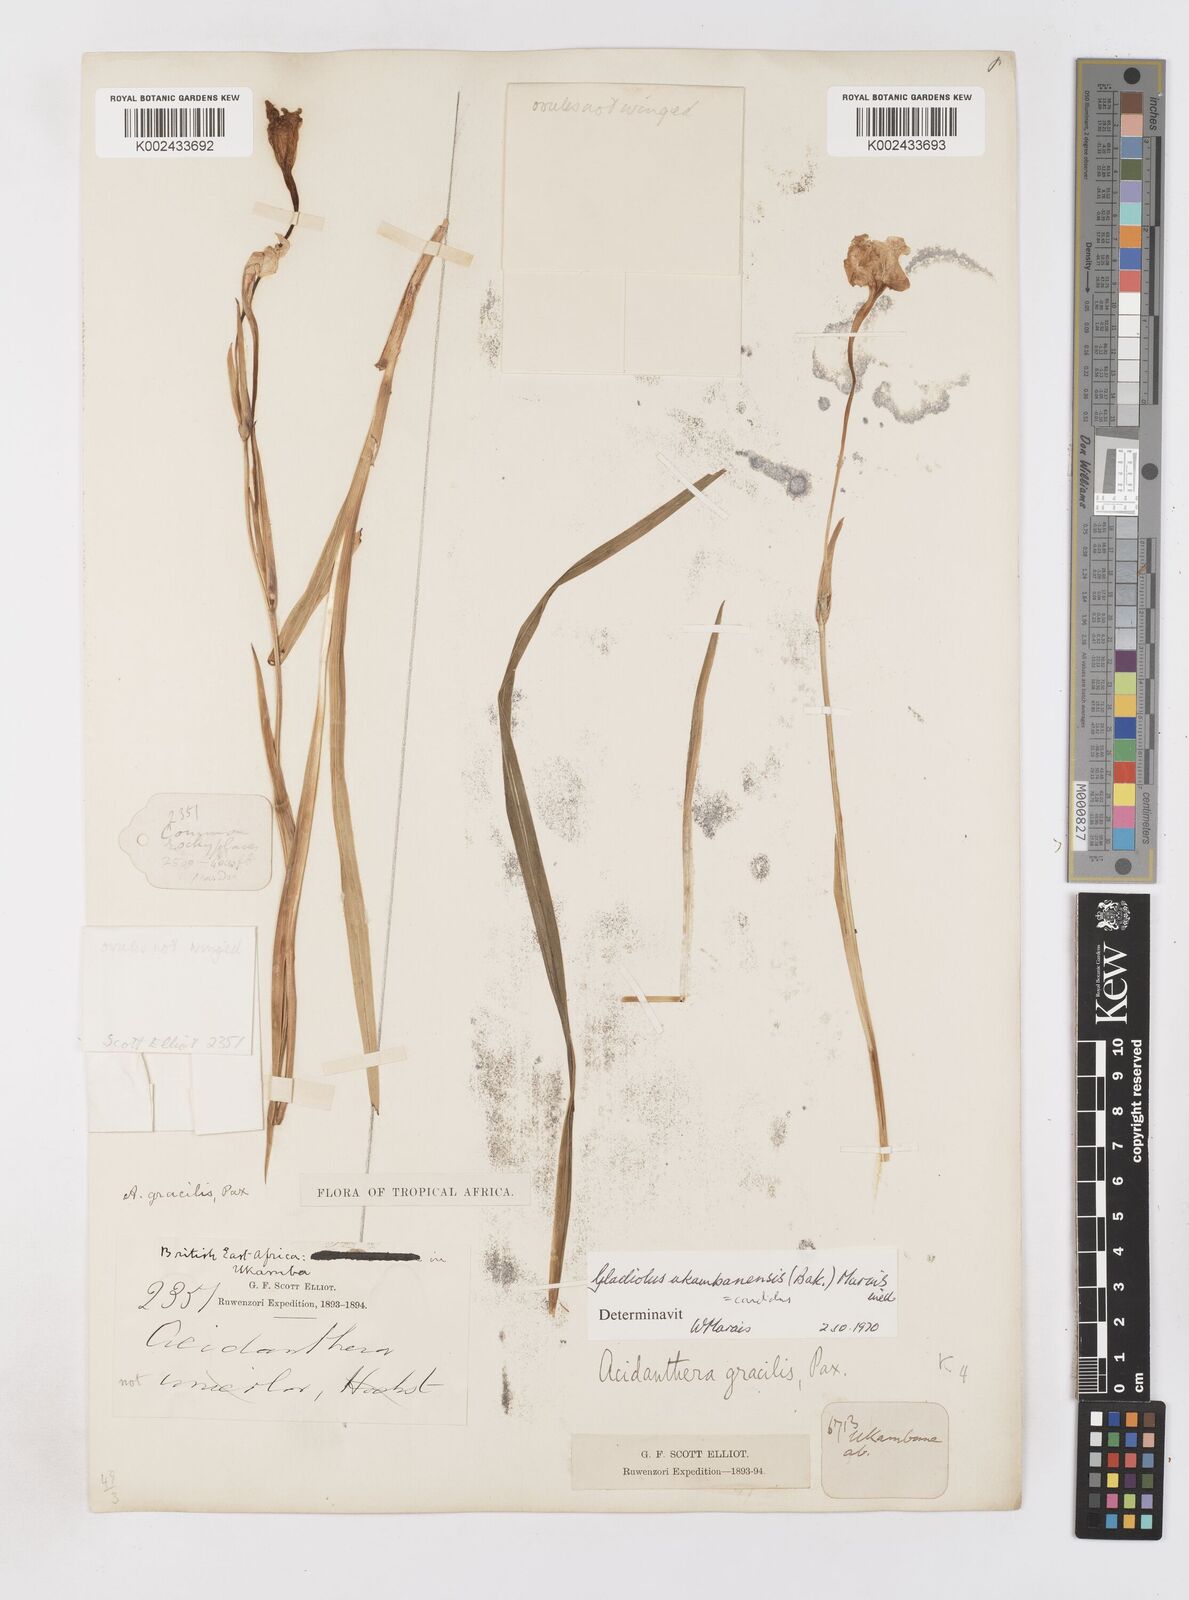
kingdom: Plantae
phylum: Tracheophyta
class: Liliopsida
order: Asparagales
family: Iridaceae
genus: Gladiolus
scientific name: Gladiolus candidus
